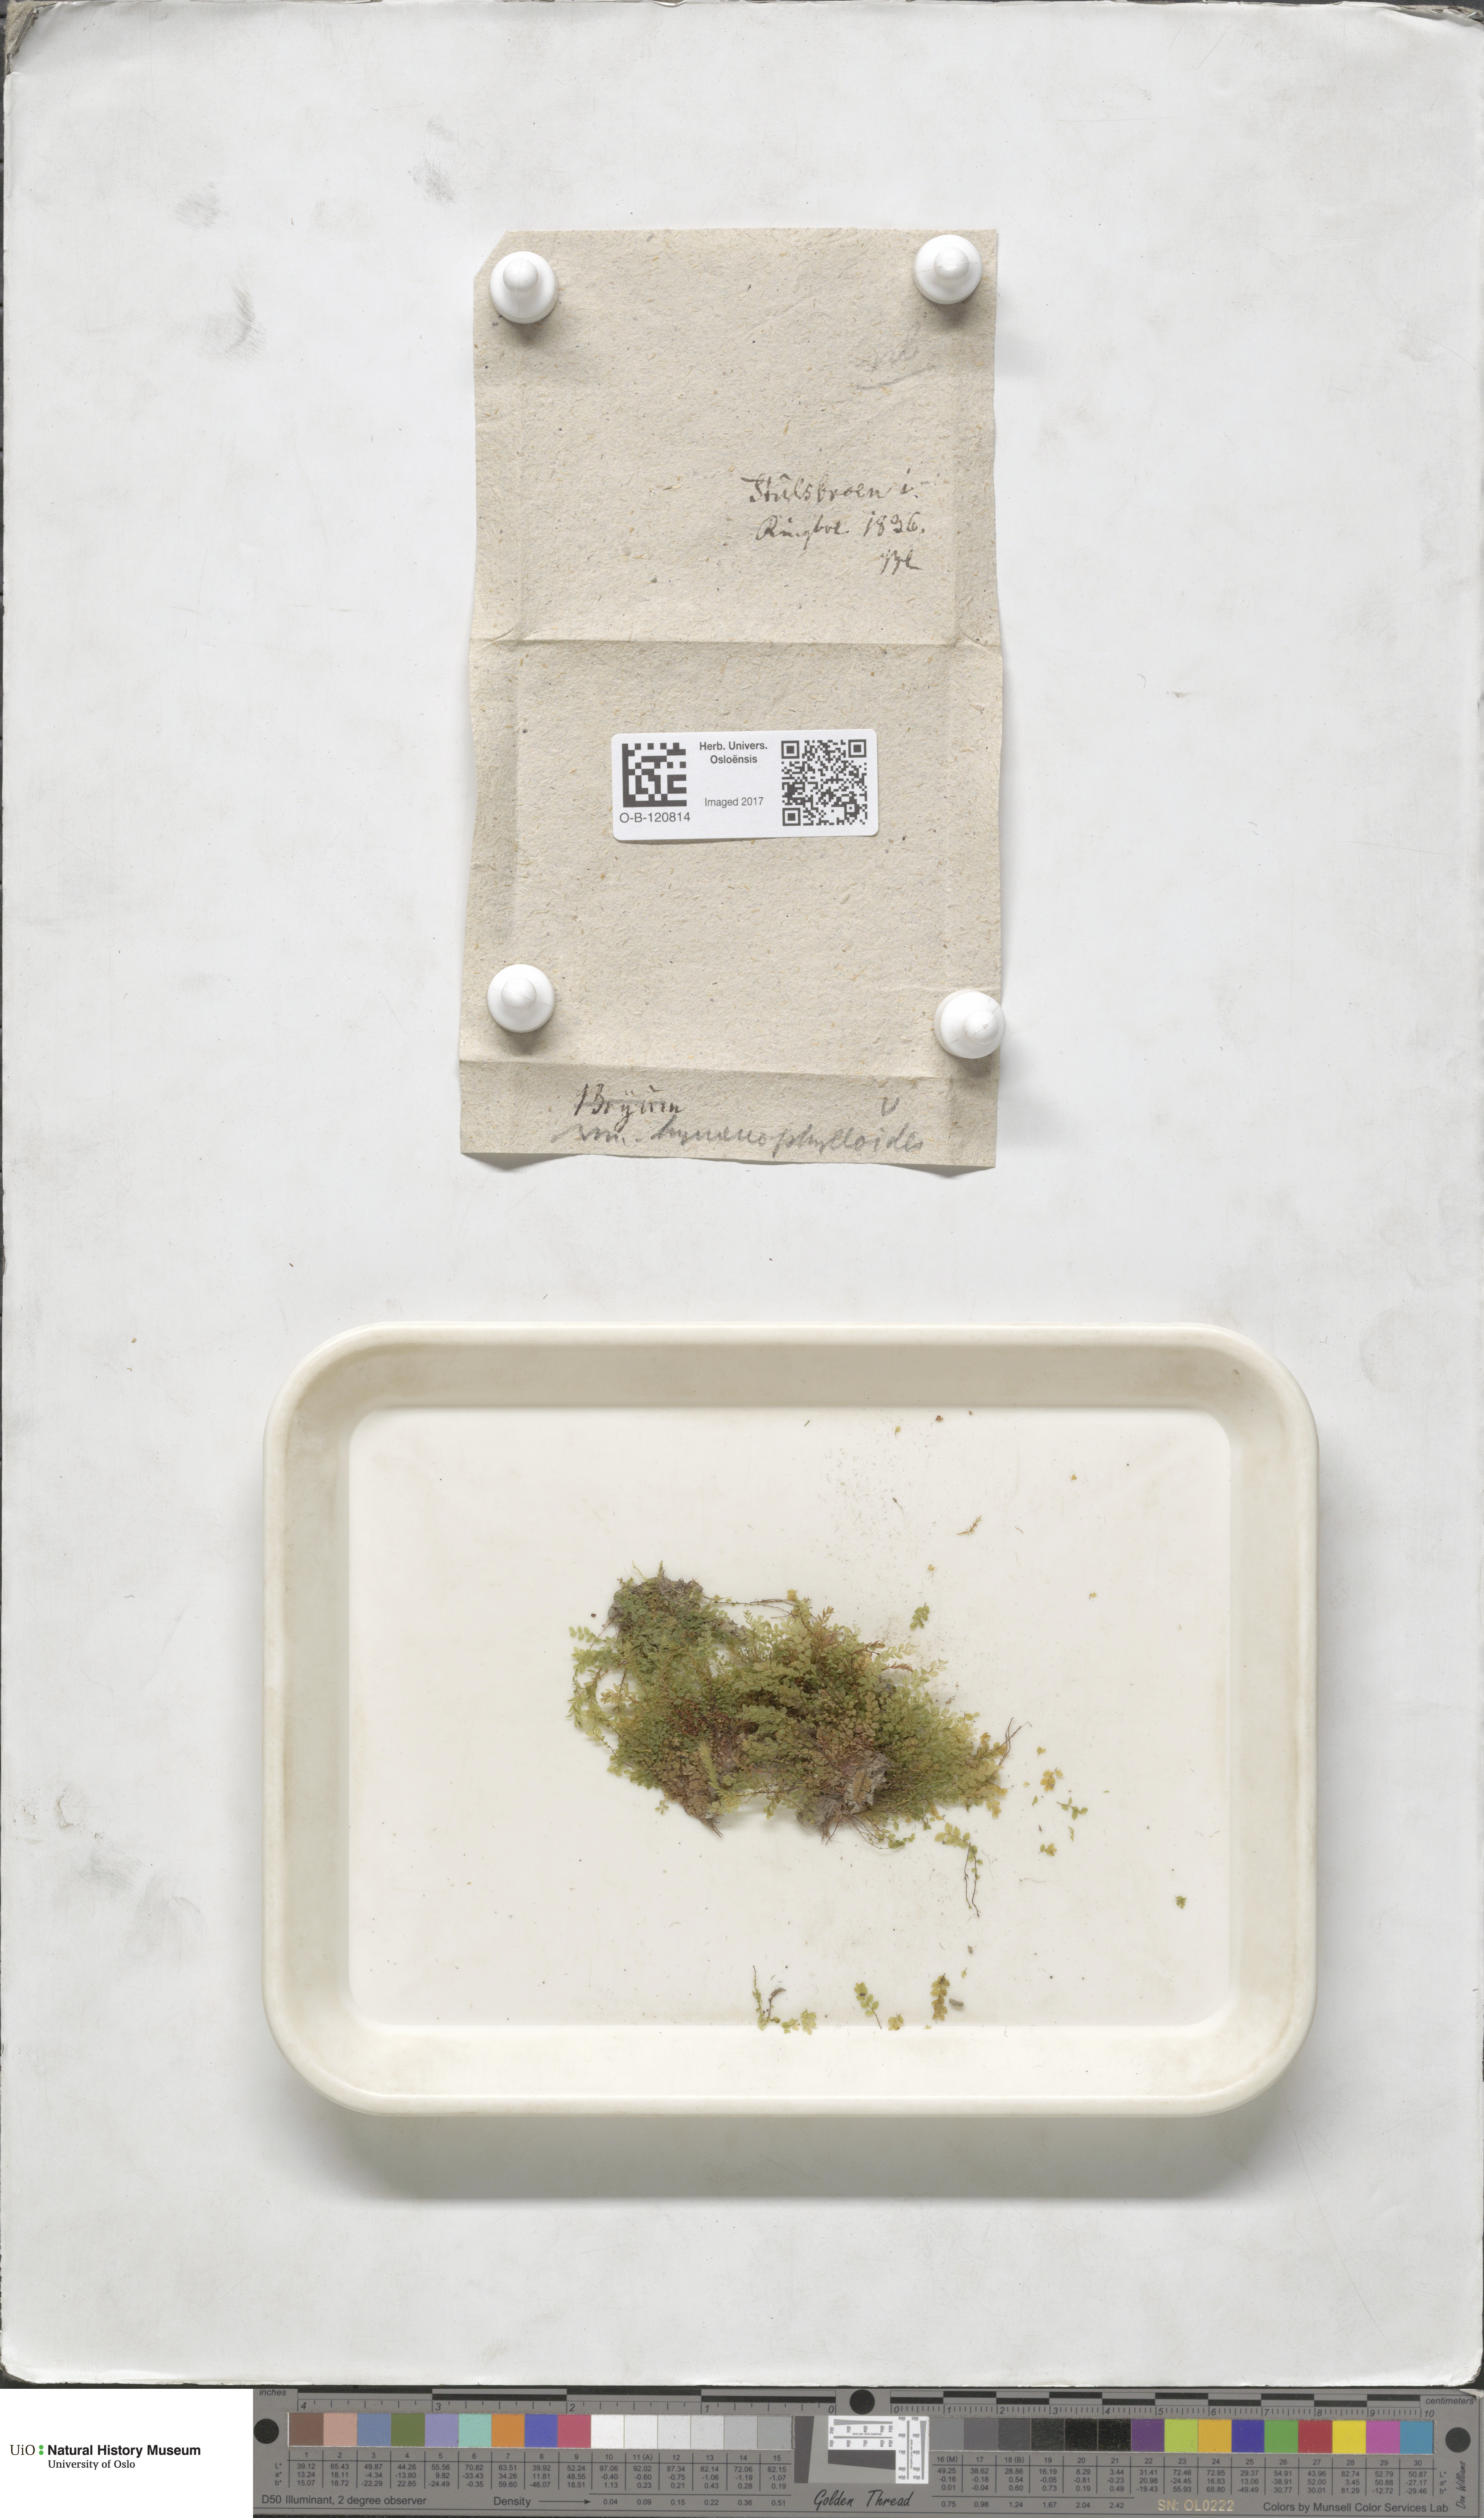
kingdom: Plantae
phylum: Bryophyta
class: Bryopsida
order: Bryales
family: Mniaceae
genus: Cyrtomnium
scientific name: Cyrtomnium hymenophylloides
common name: Short-pointed lantern moss
